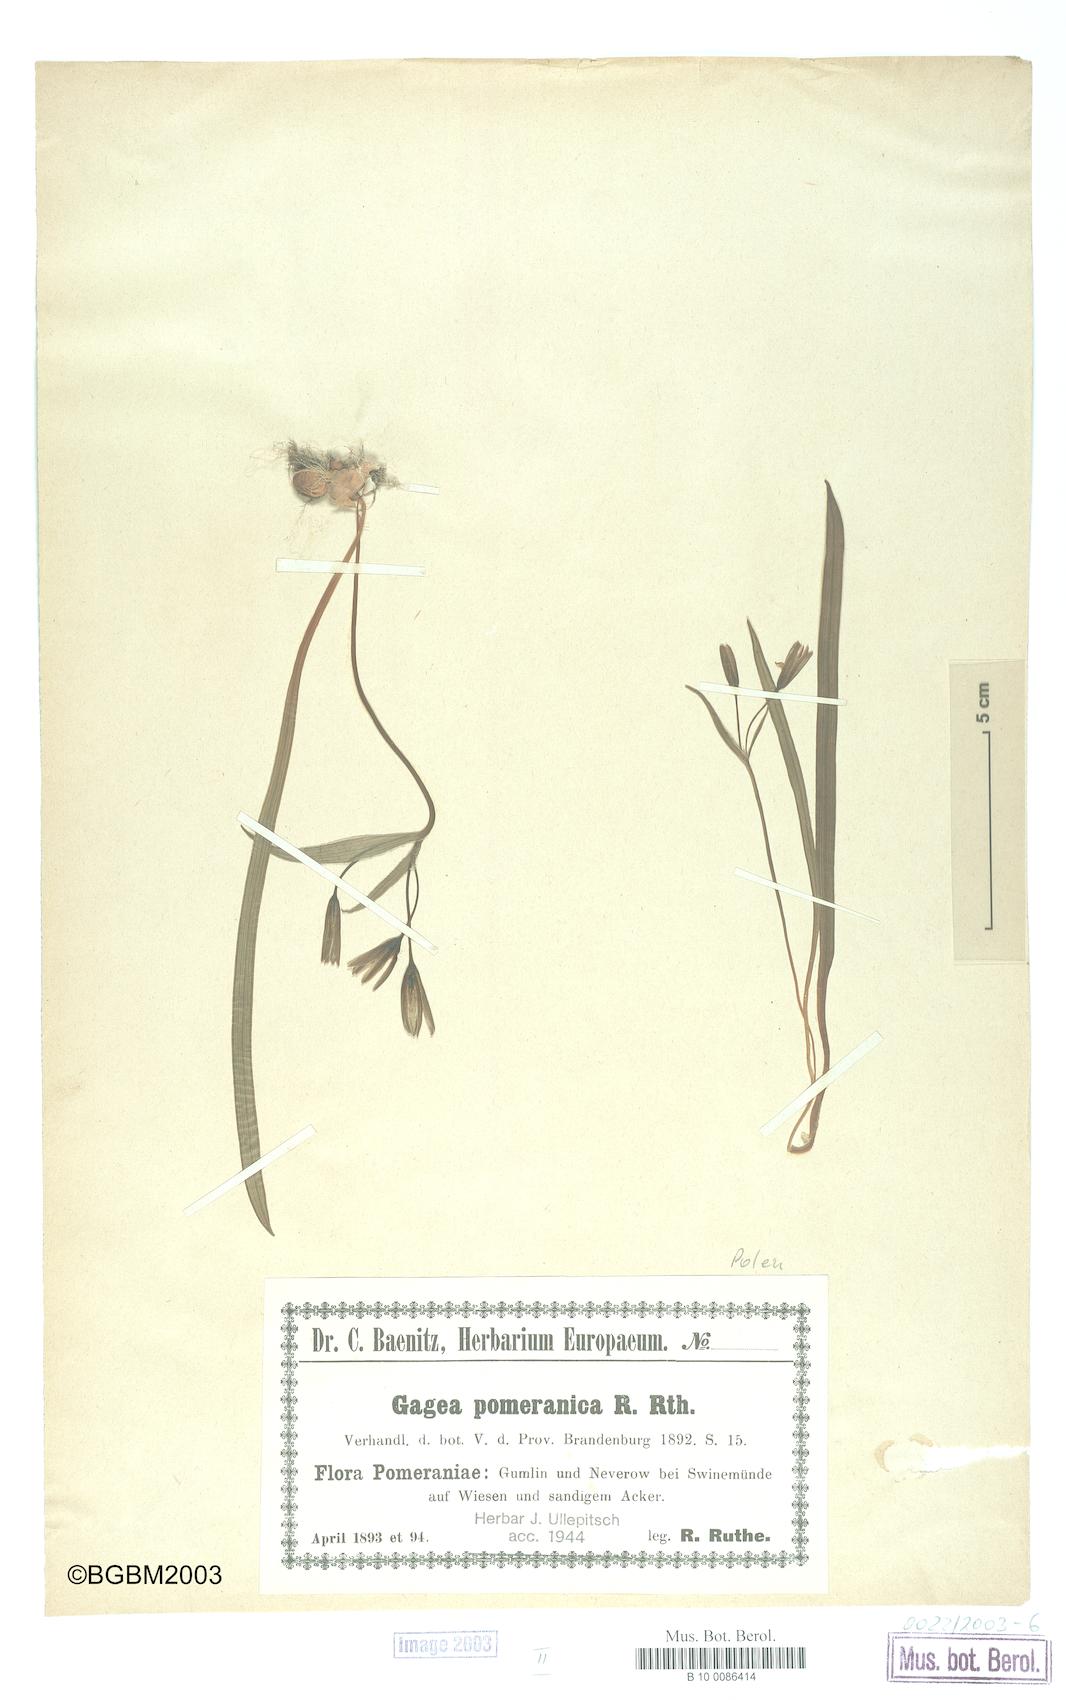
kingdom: Plantae
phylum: Tracheophyta
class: Liliopsida
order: Liliales
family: Liliaceae
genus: Gagea
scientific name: Gagea pomeranica
